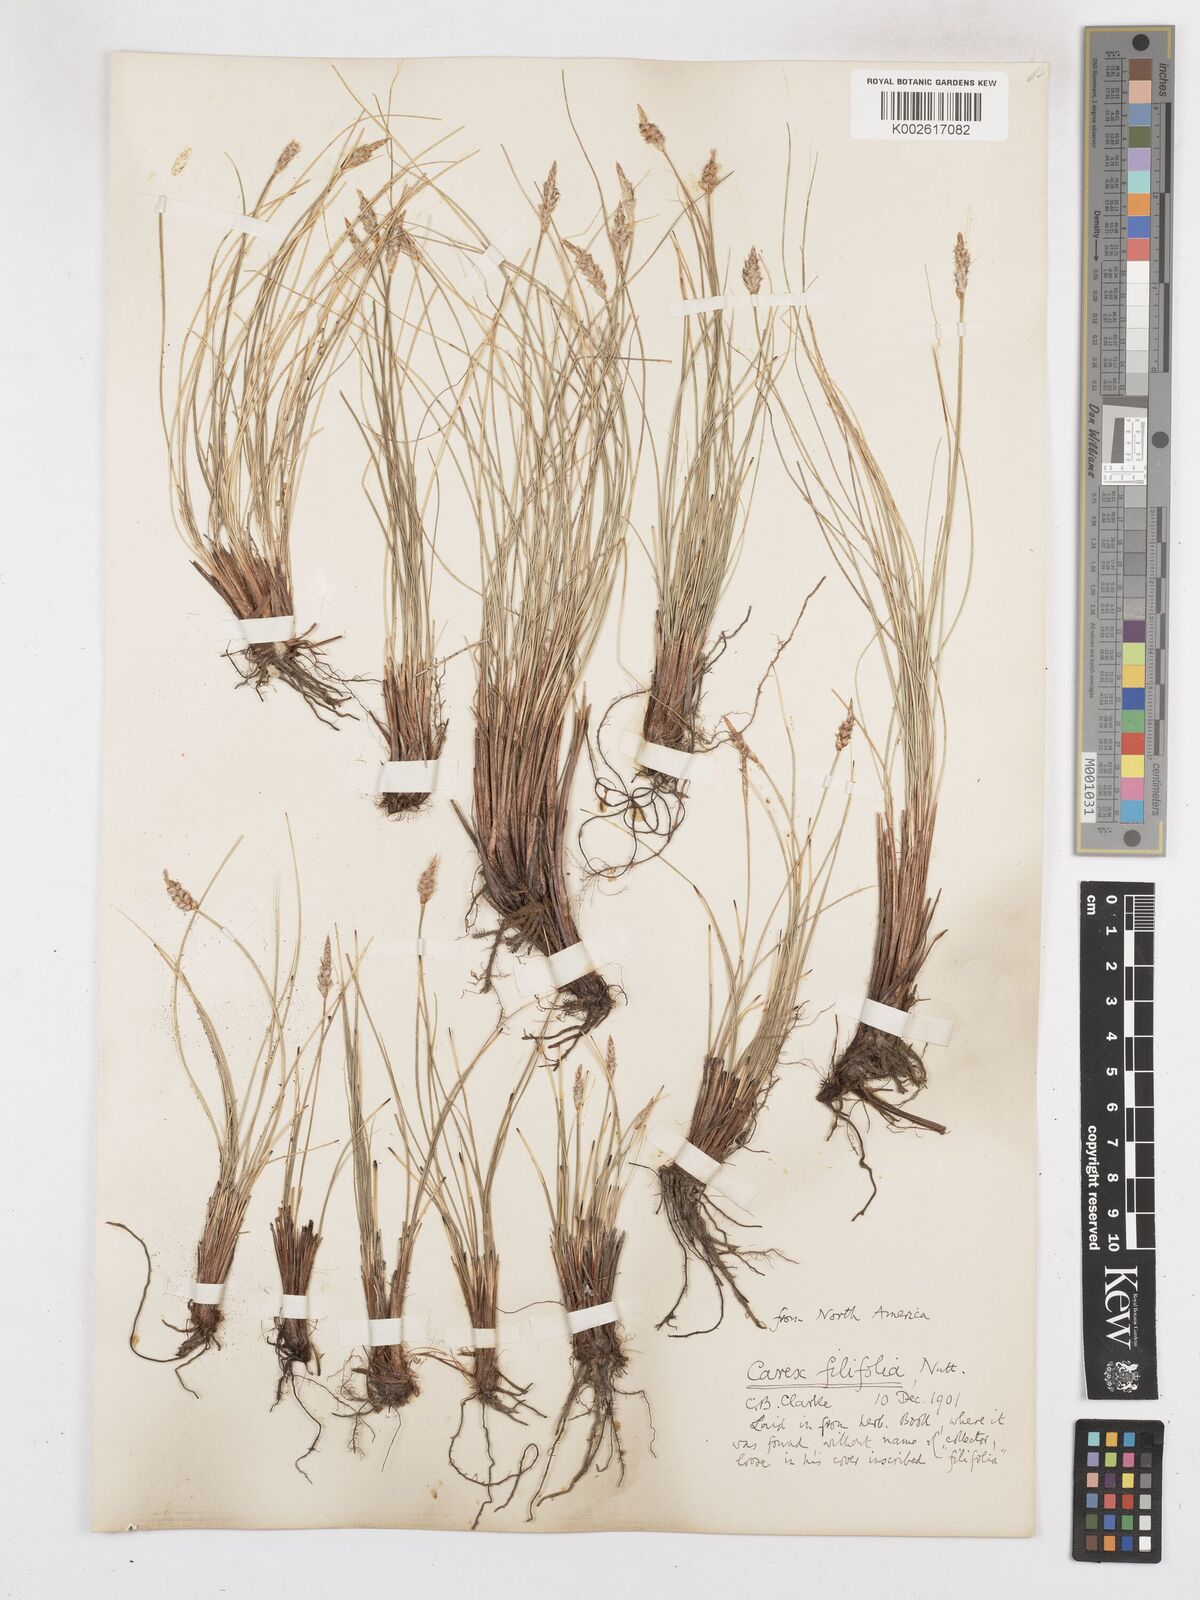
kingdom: Plantae
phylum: Tracheophyta
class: Liliopsida
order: Poales
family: Cyperaceae
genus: Carex
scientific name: Carex filifolia
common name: Threadleaf sedge
